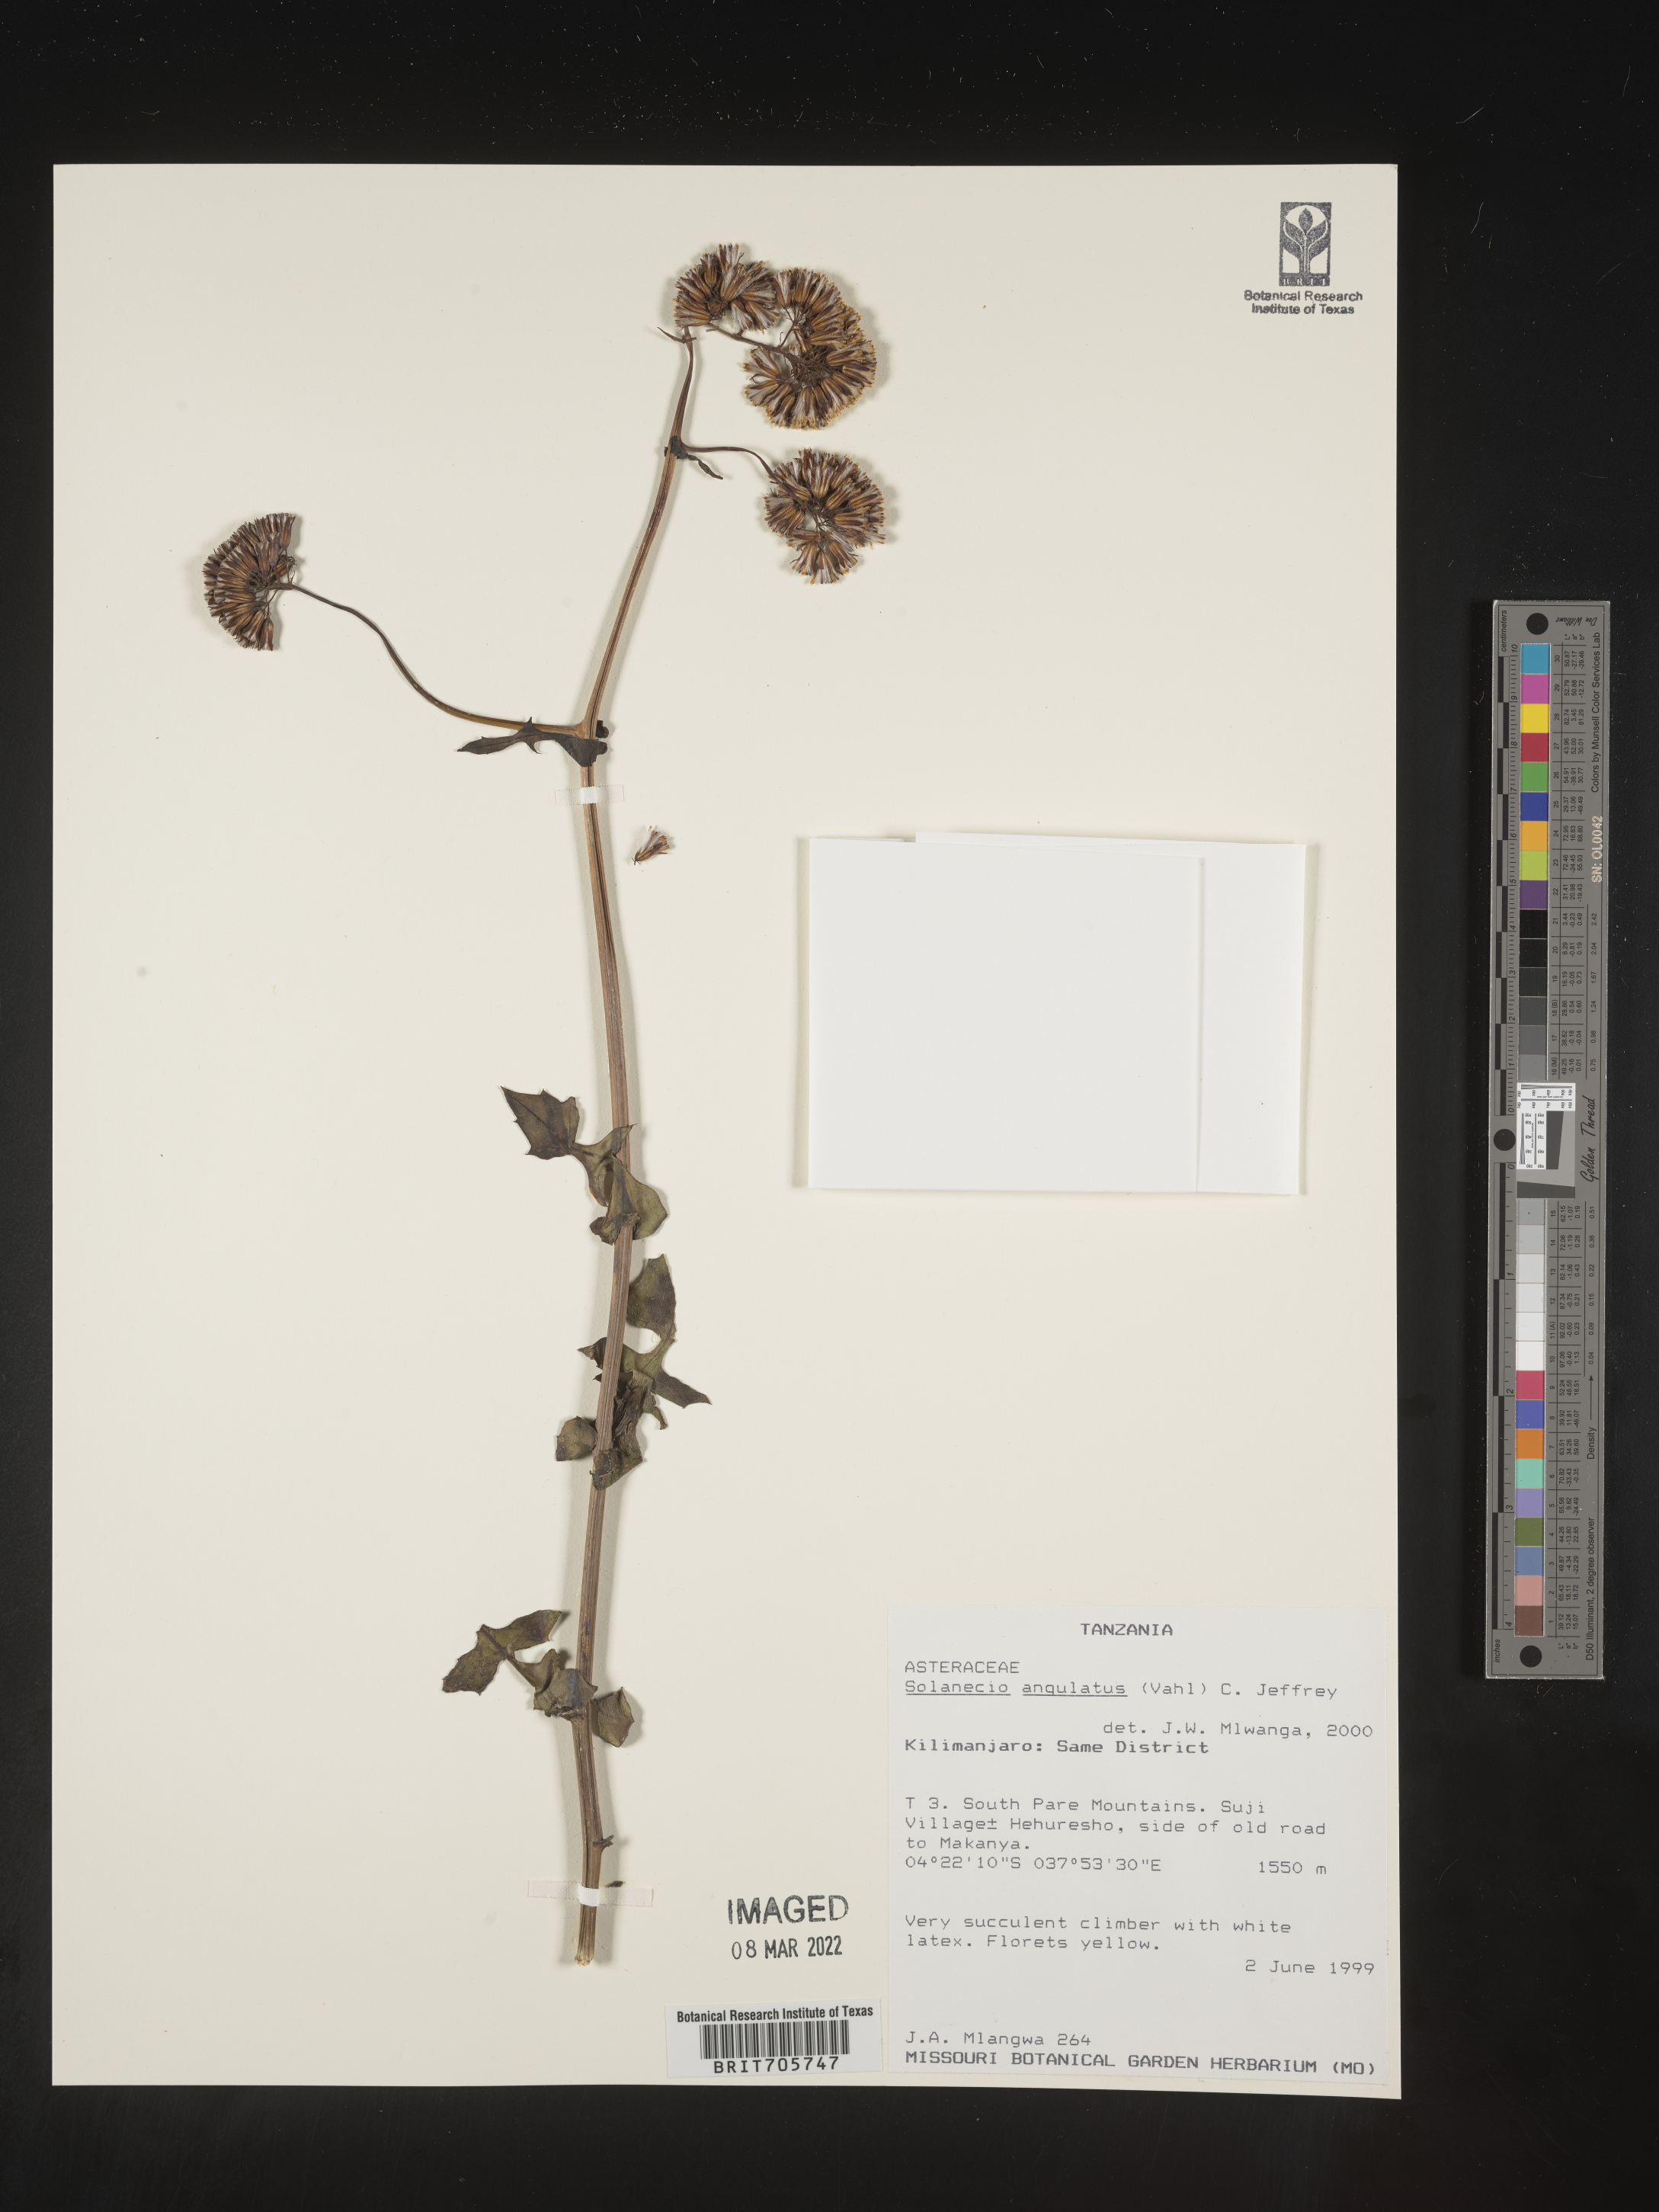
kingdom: Plantae
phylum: Tracheophyta
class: Magnoliopsida
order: Asterales
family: Asteraceae
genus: Solanecio
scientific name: Solanecio
